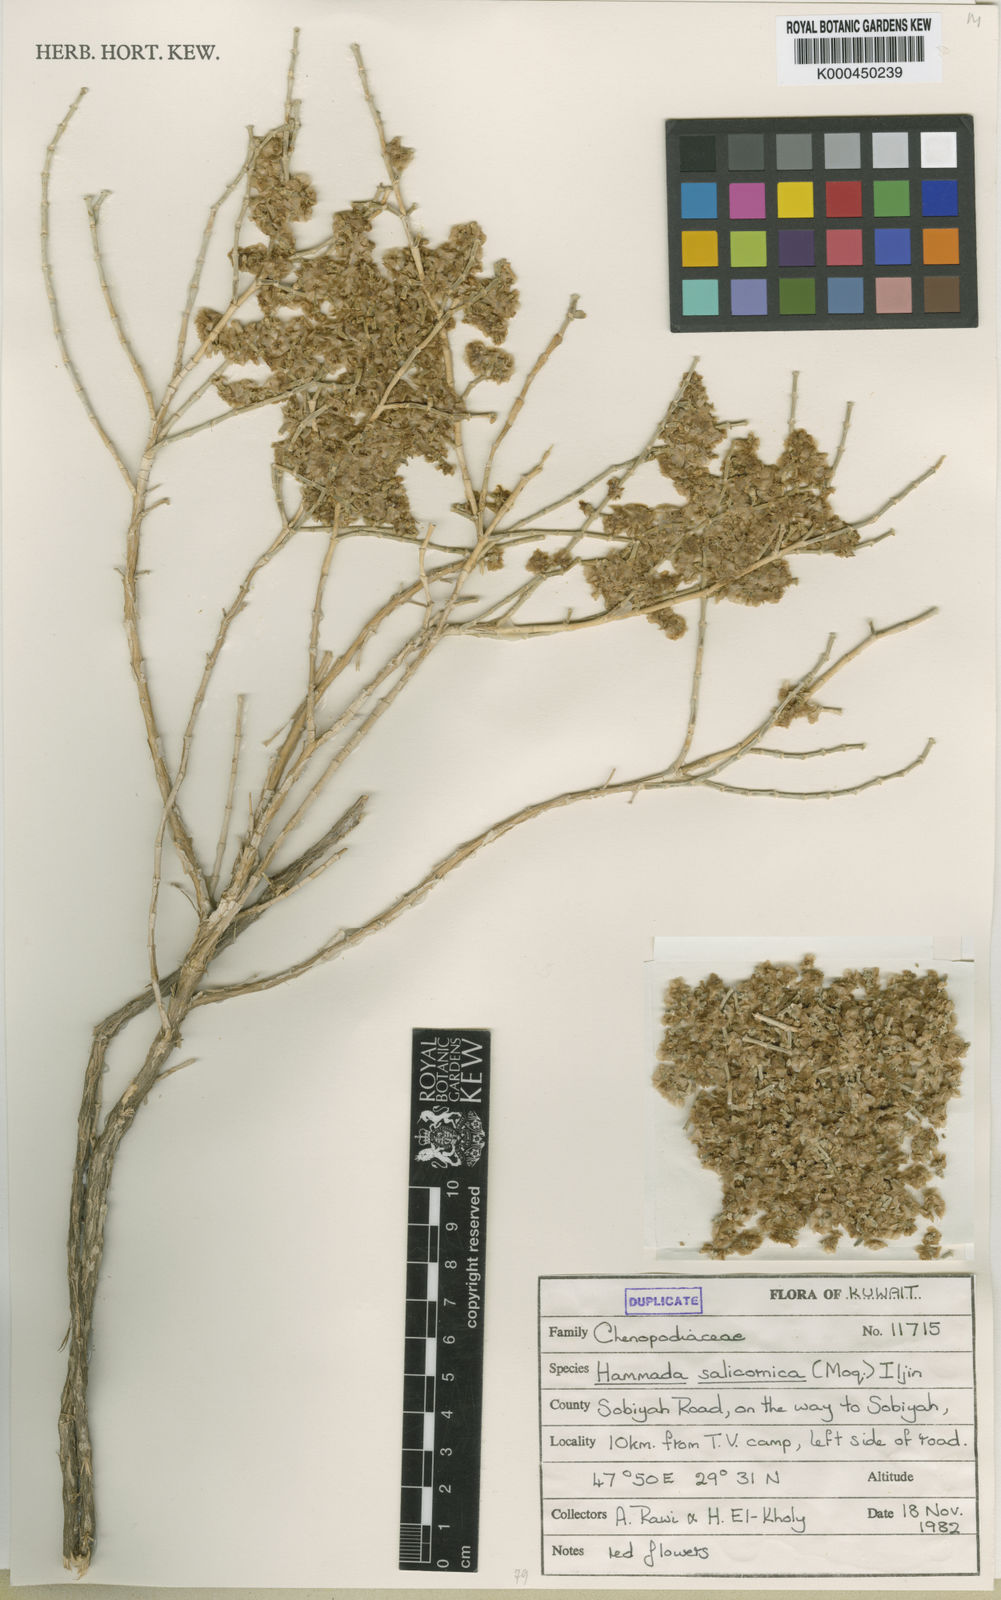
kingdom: Plantae
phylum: Tracheophyta
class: Magnoliopsida
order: Caryophyllales
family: Amaranthaceae
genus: Haloxylon
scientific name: Haloxylon salicornicum
